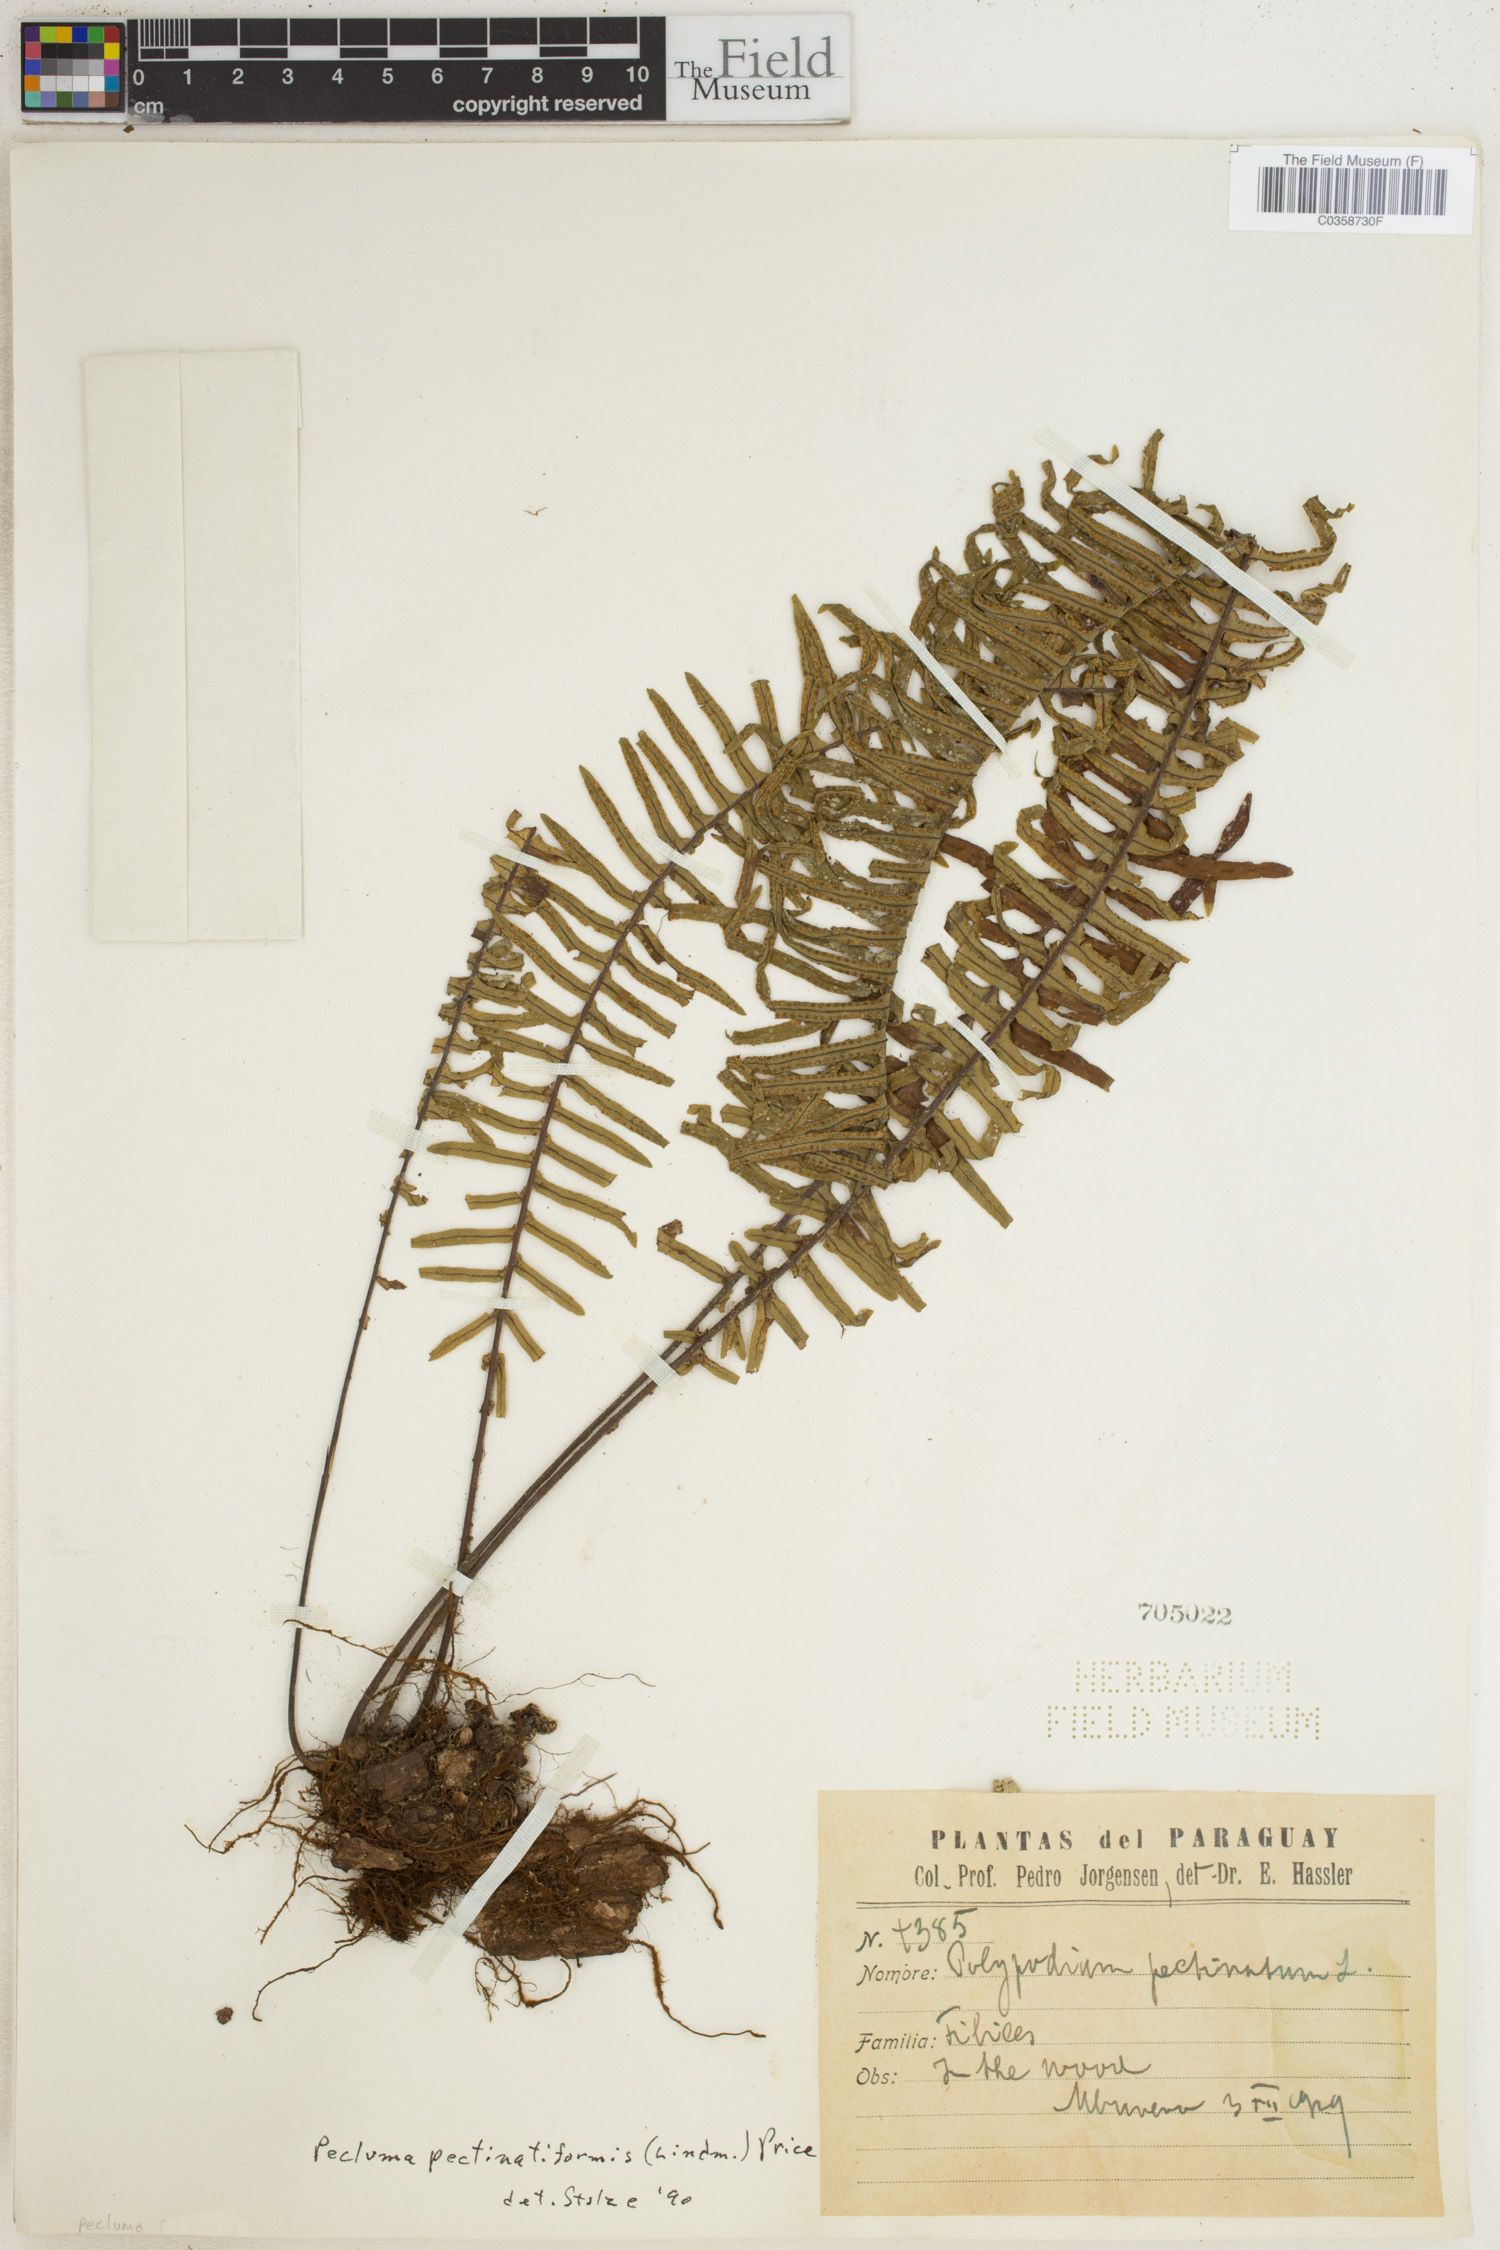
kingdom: Plantae
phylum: Tracheophyta
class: Polypodiopsida
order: Polypodiales
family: Polypodiaceae
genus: Pecluma
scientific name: Pecluma pectinatiformis
